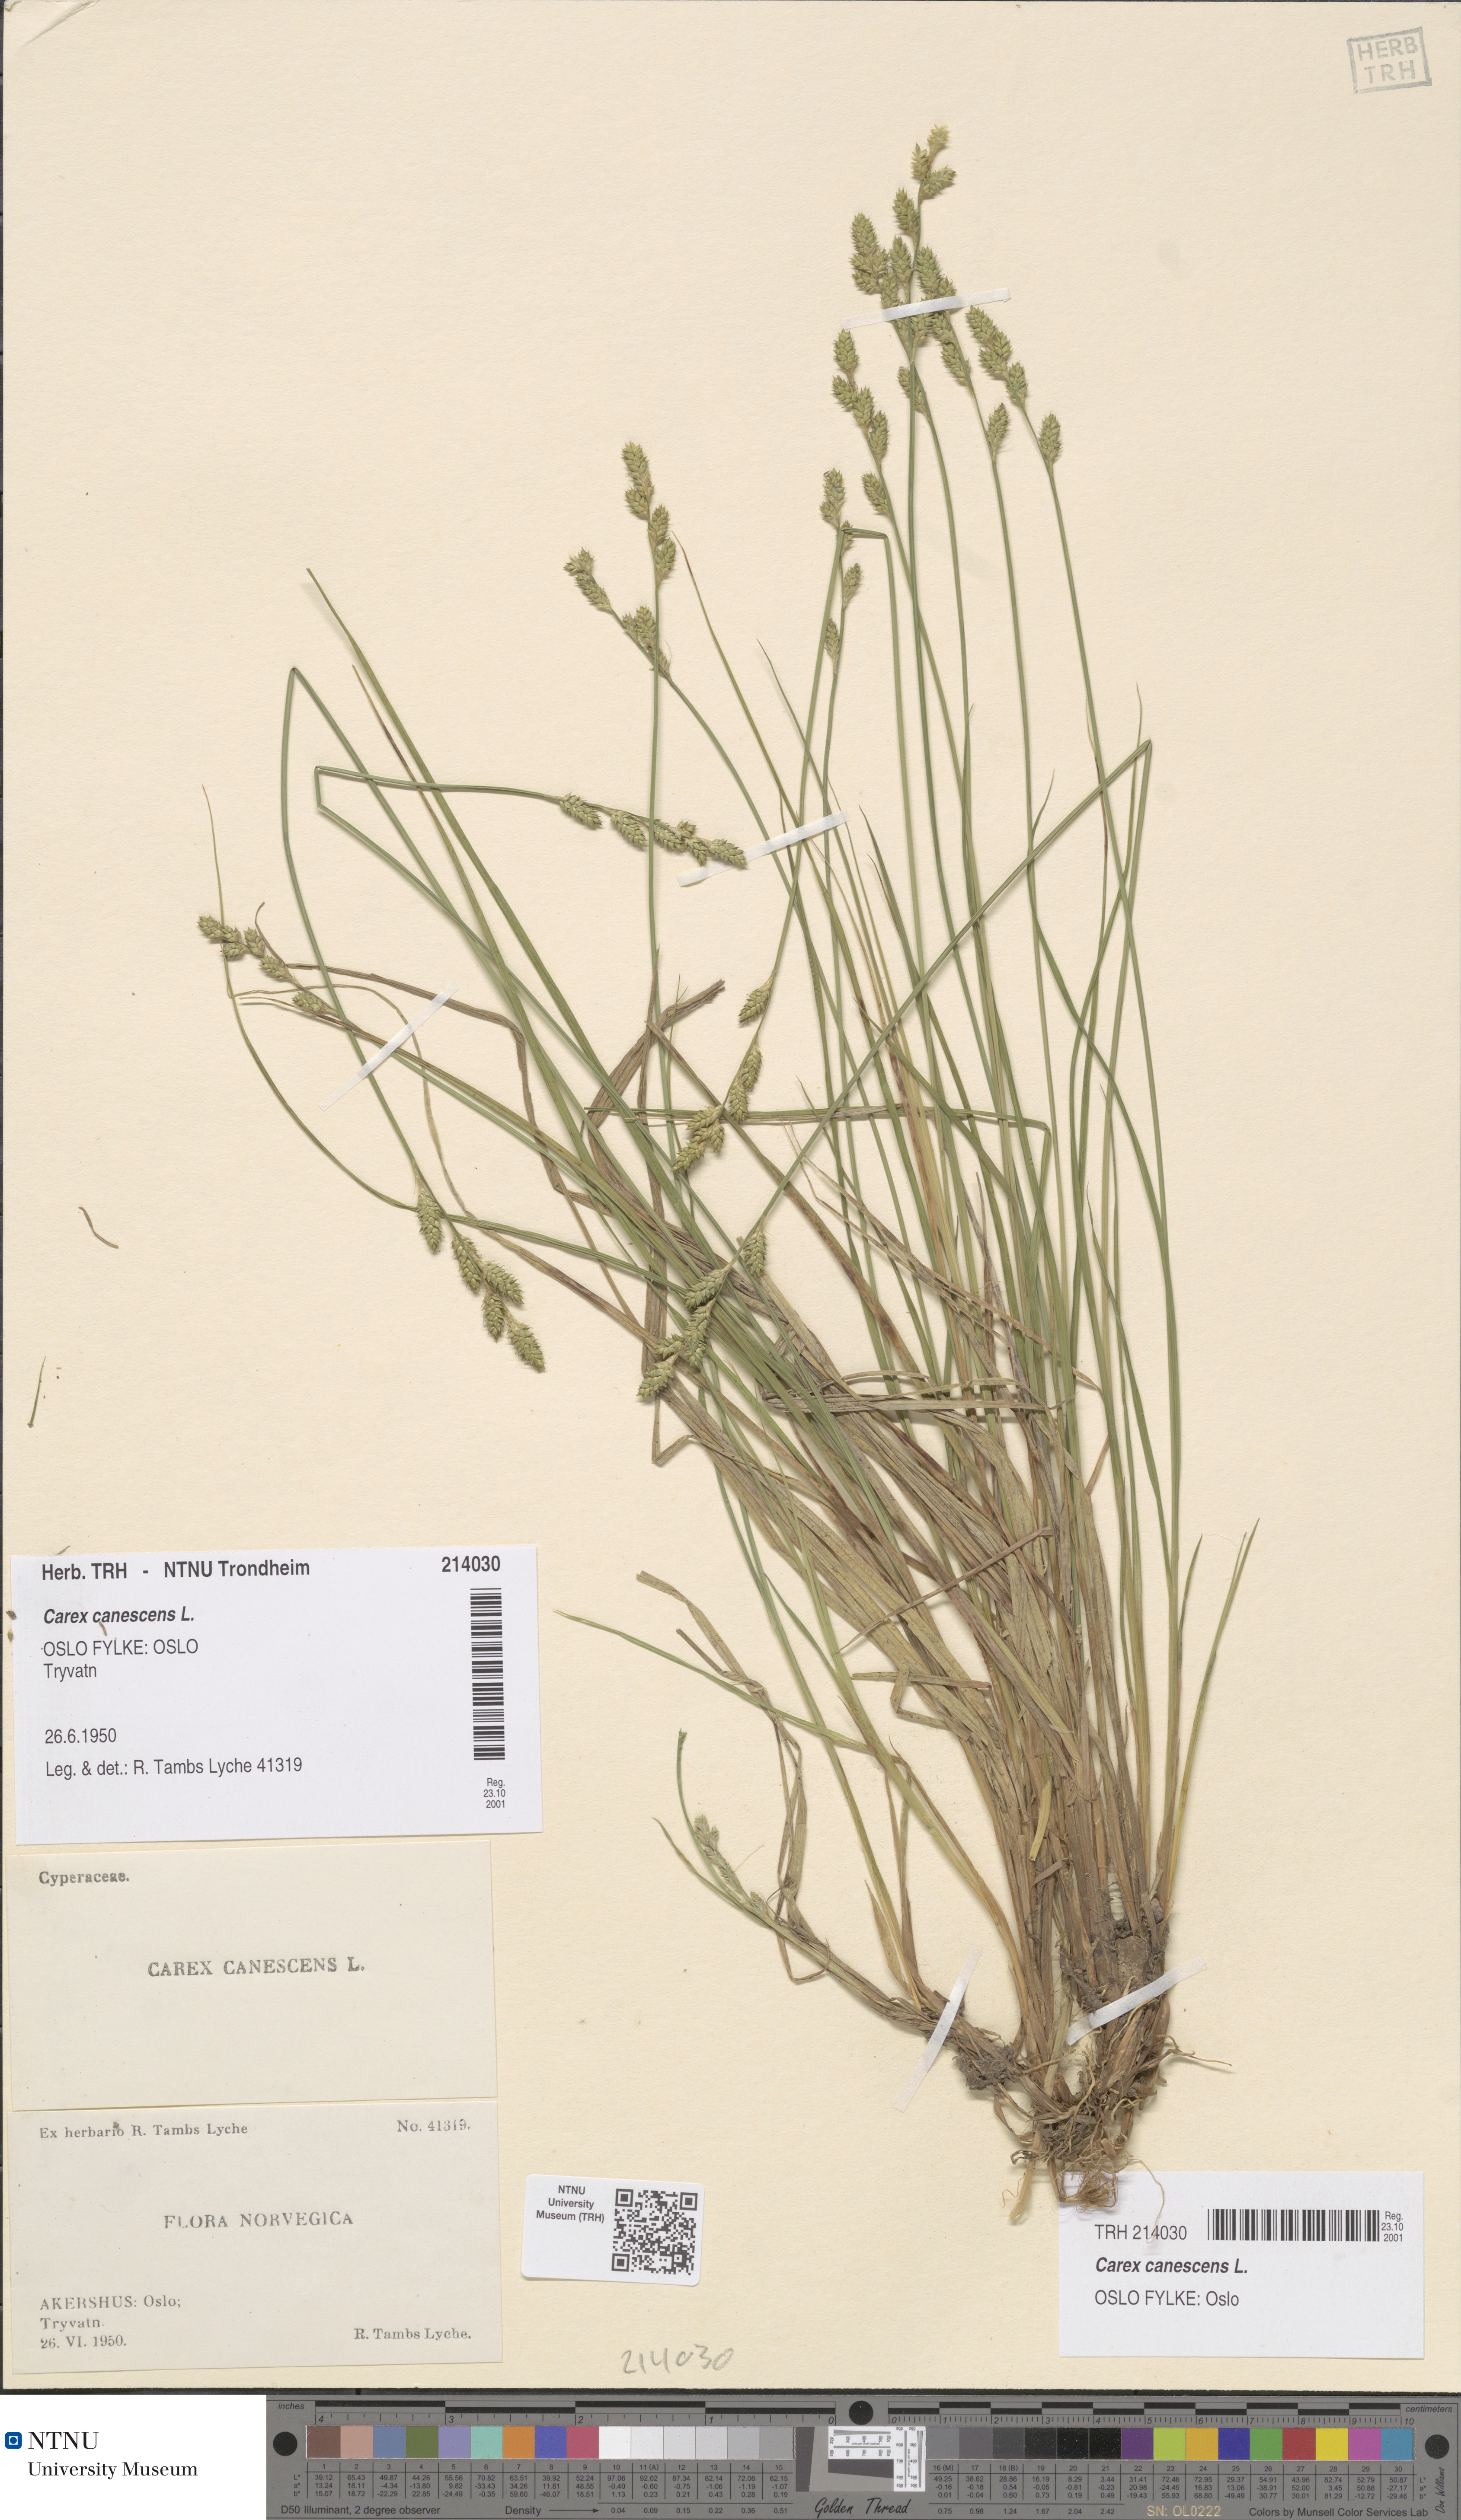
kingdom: Plantae
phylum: Tracheophyta
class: Liliopsida
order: Poales
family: Cyperaceae
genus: Carex
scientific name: Carex canescens
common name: White sedge
